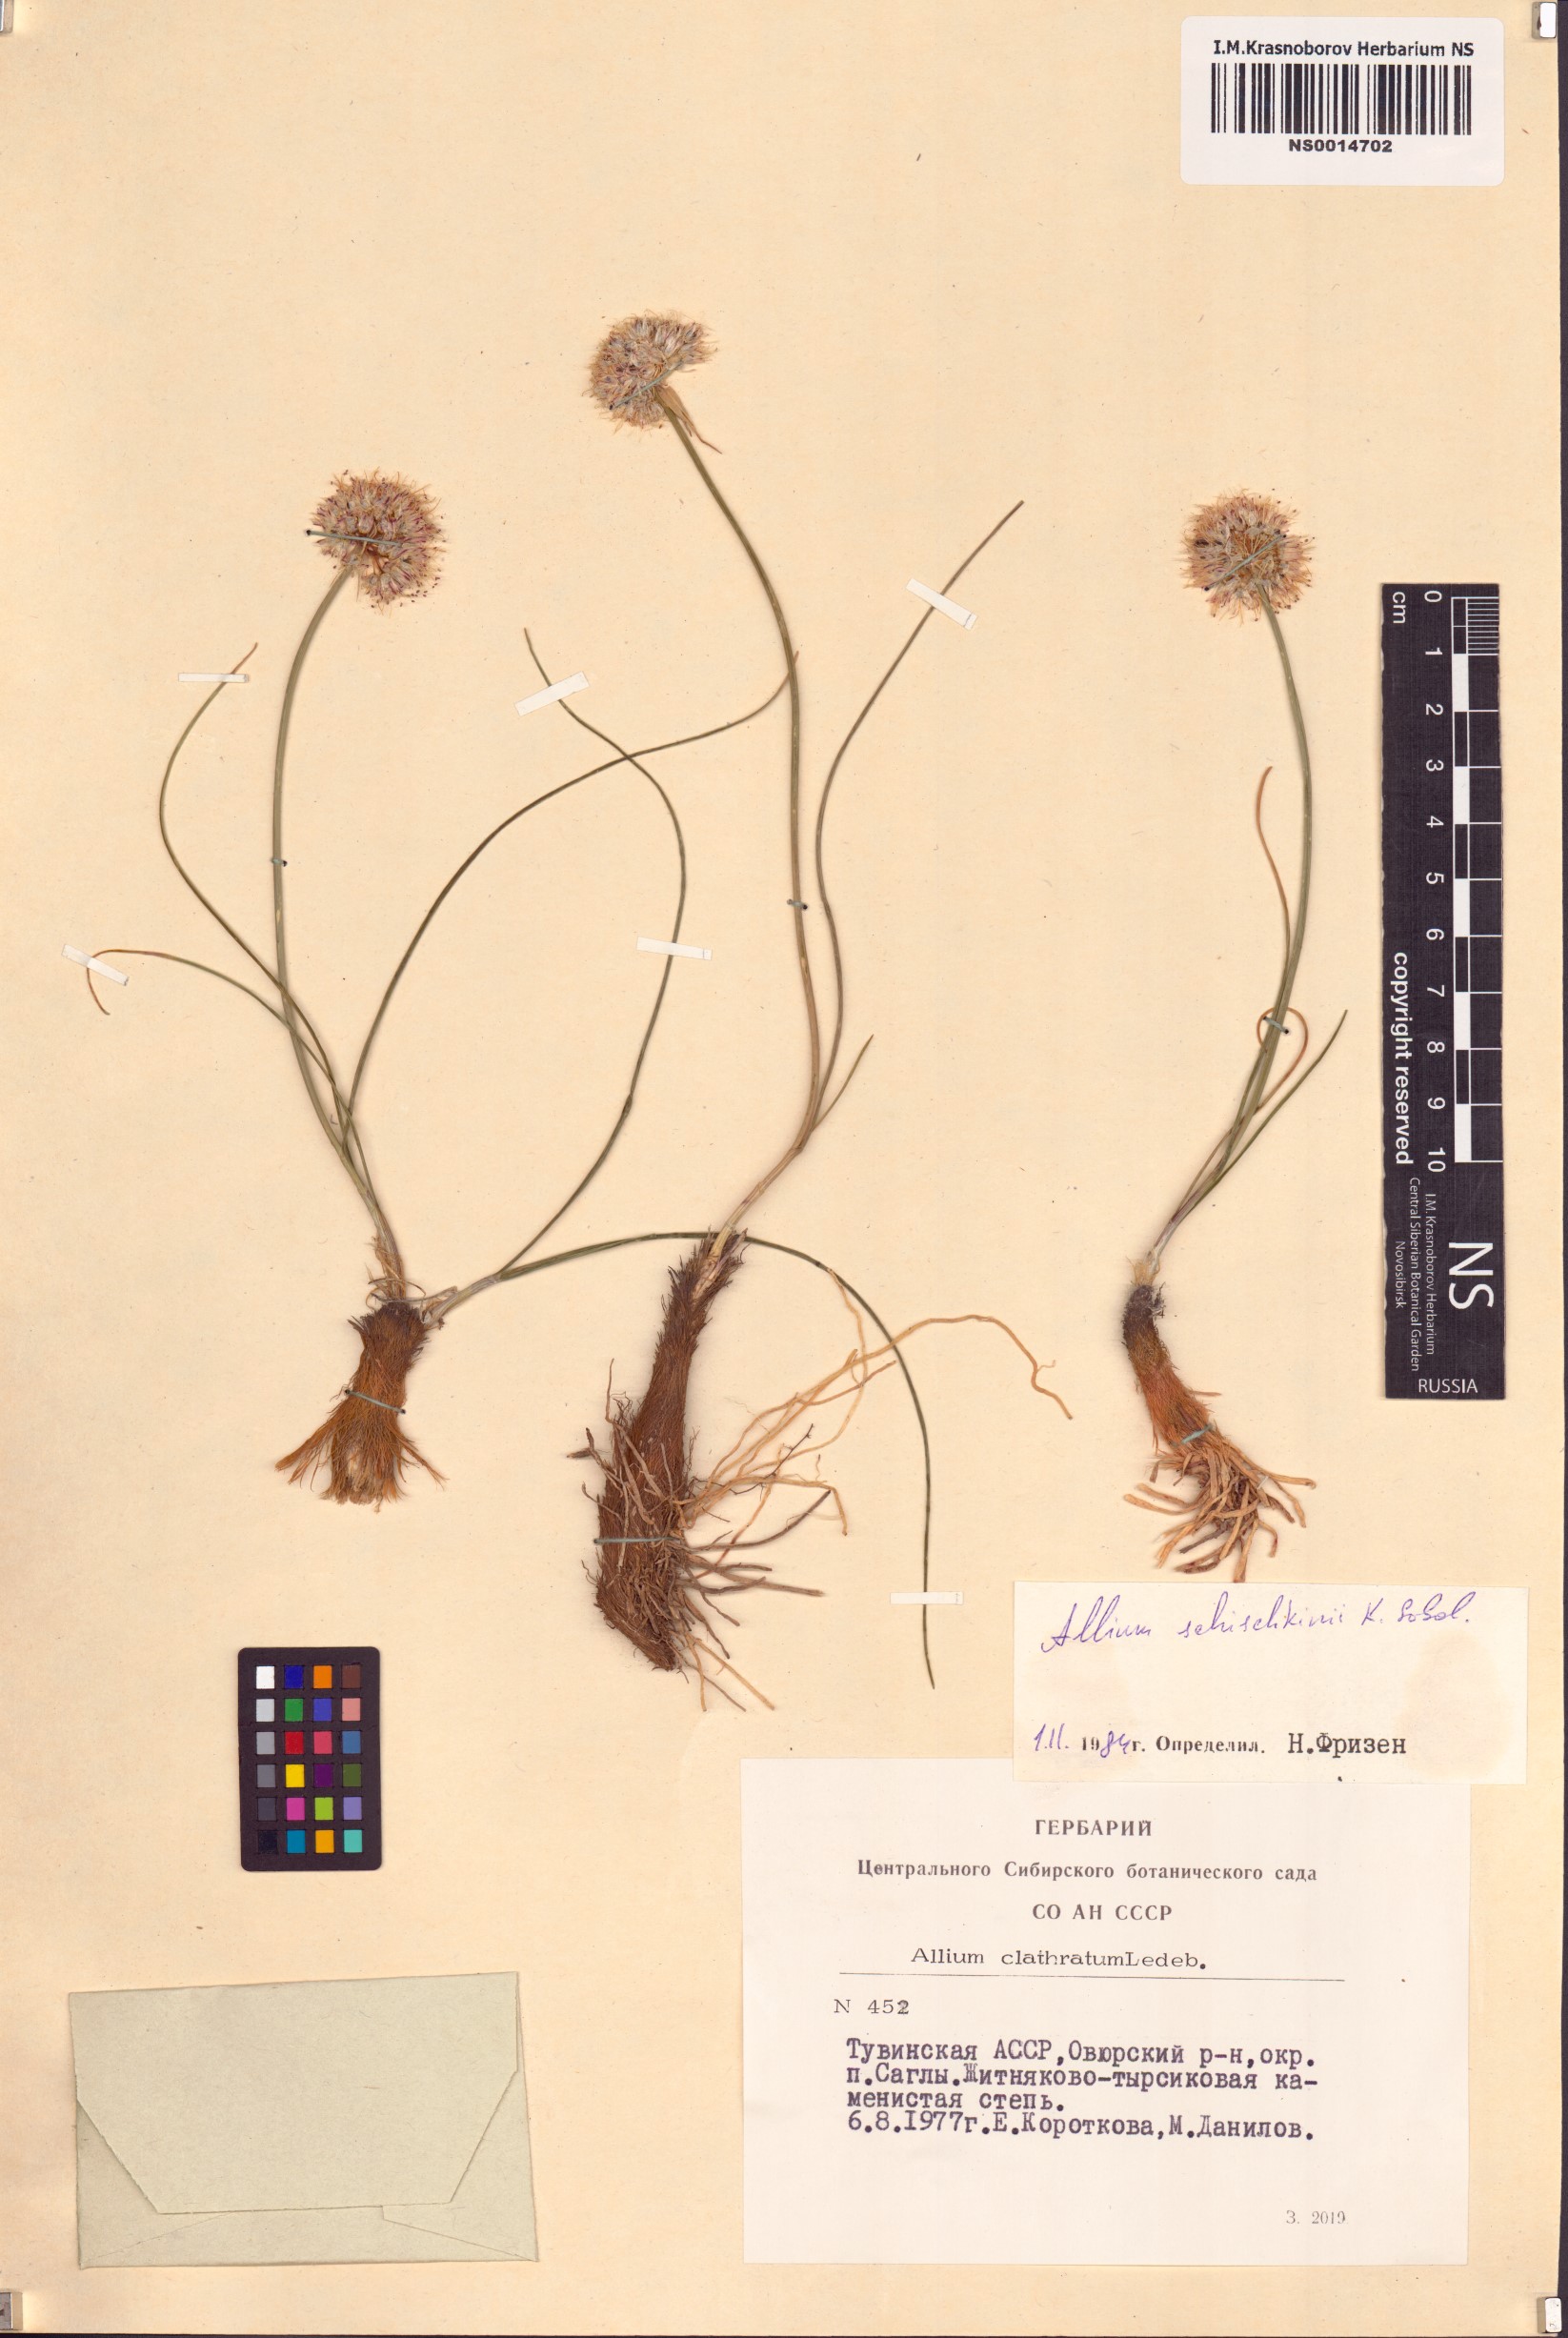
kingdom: Plantae
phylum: Tracheophyta
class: Liliopsida
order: Asparagales
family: Amaryllidaceae
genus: Allium
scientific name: Allium schischkinii
